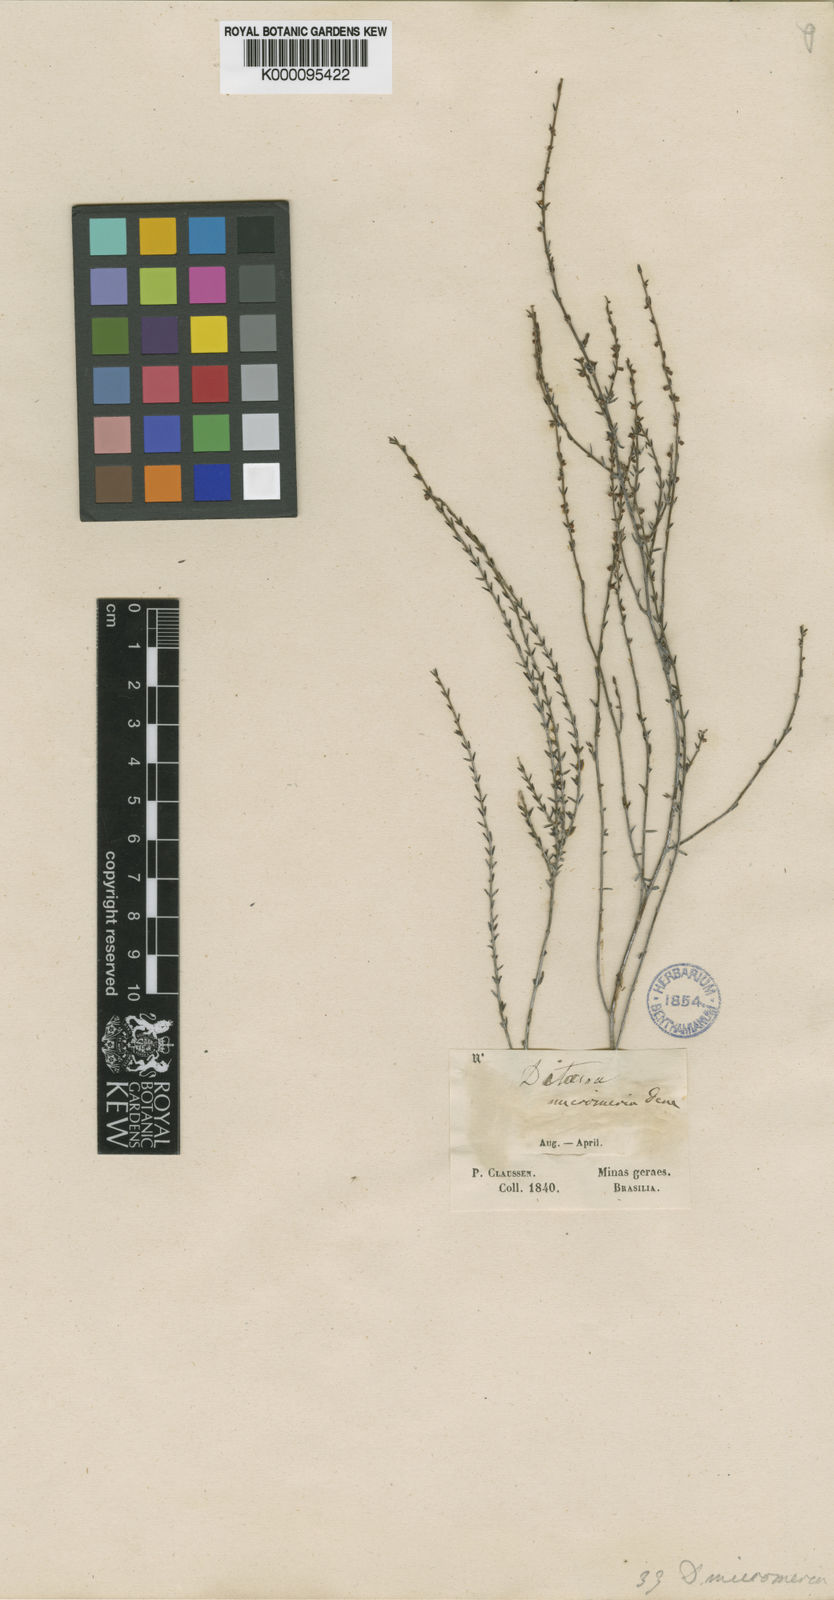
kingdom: Plantae
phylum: Tracheophyta
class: Magnoliopsida
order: Gentianales
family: Apocynaceae
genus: Minaria
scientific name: Minaria micromeria
